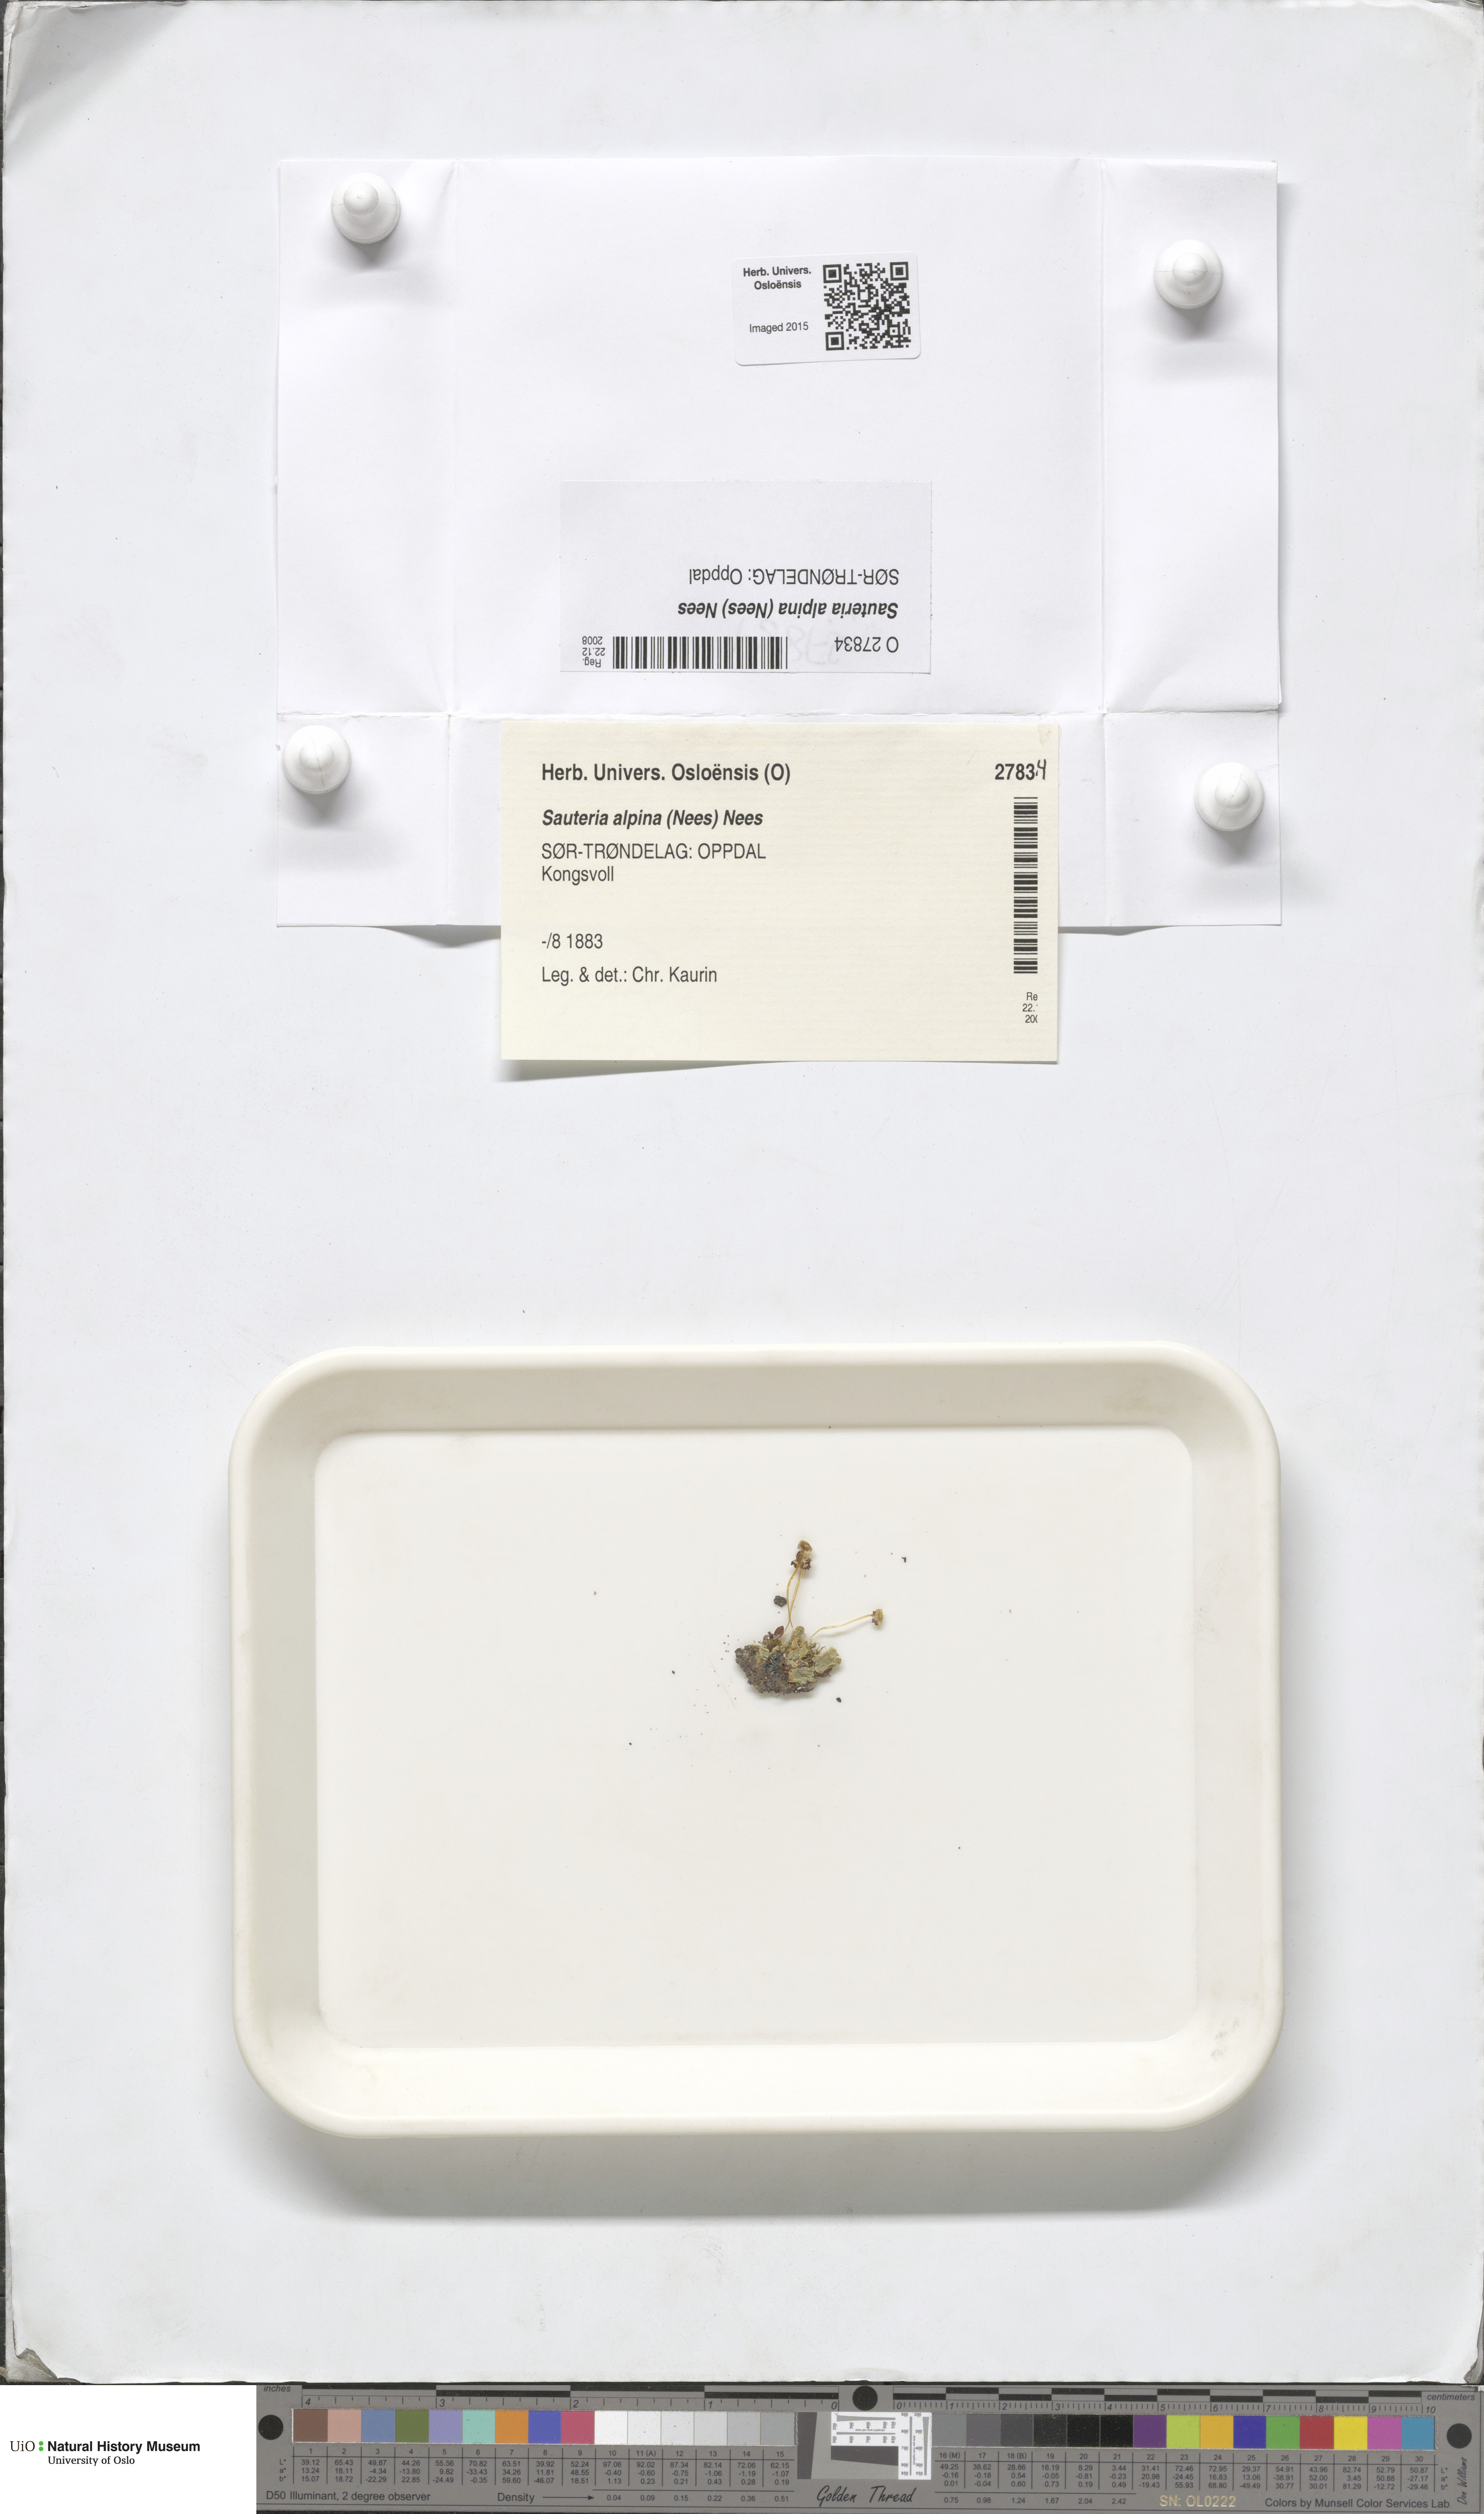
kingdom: Plantae
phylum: Marchantiophyta
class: Marchantiopsida
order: Marchantiales
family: Cleveaceae
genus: Sauteria
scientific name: Sauteria alpina
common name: Snow lungwort
